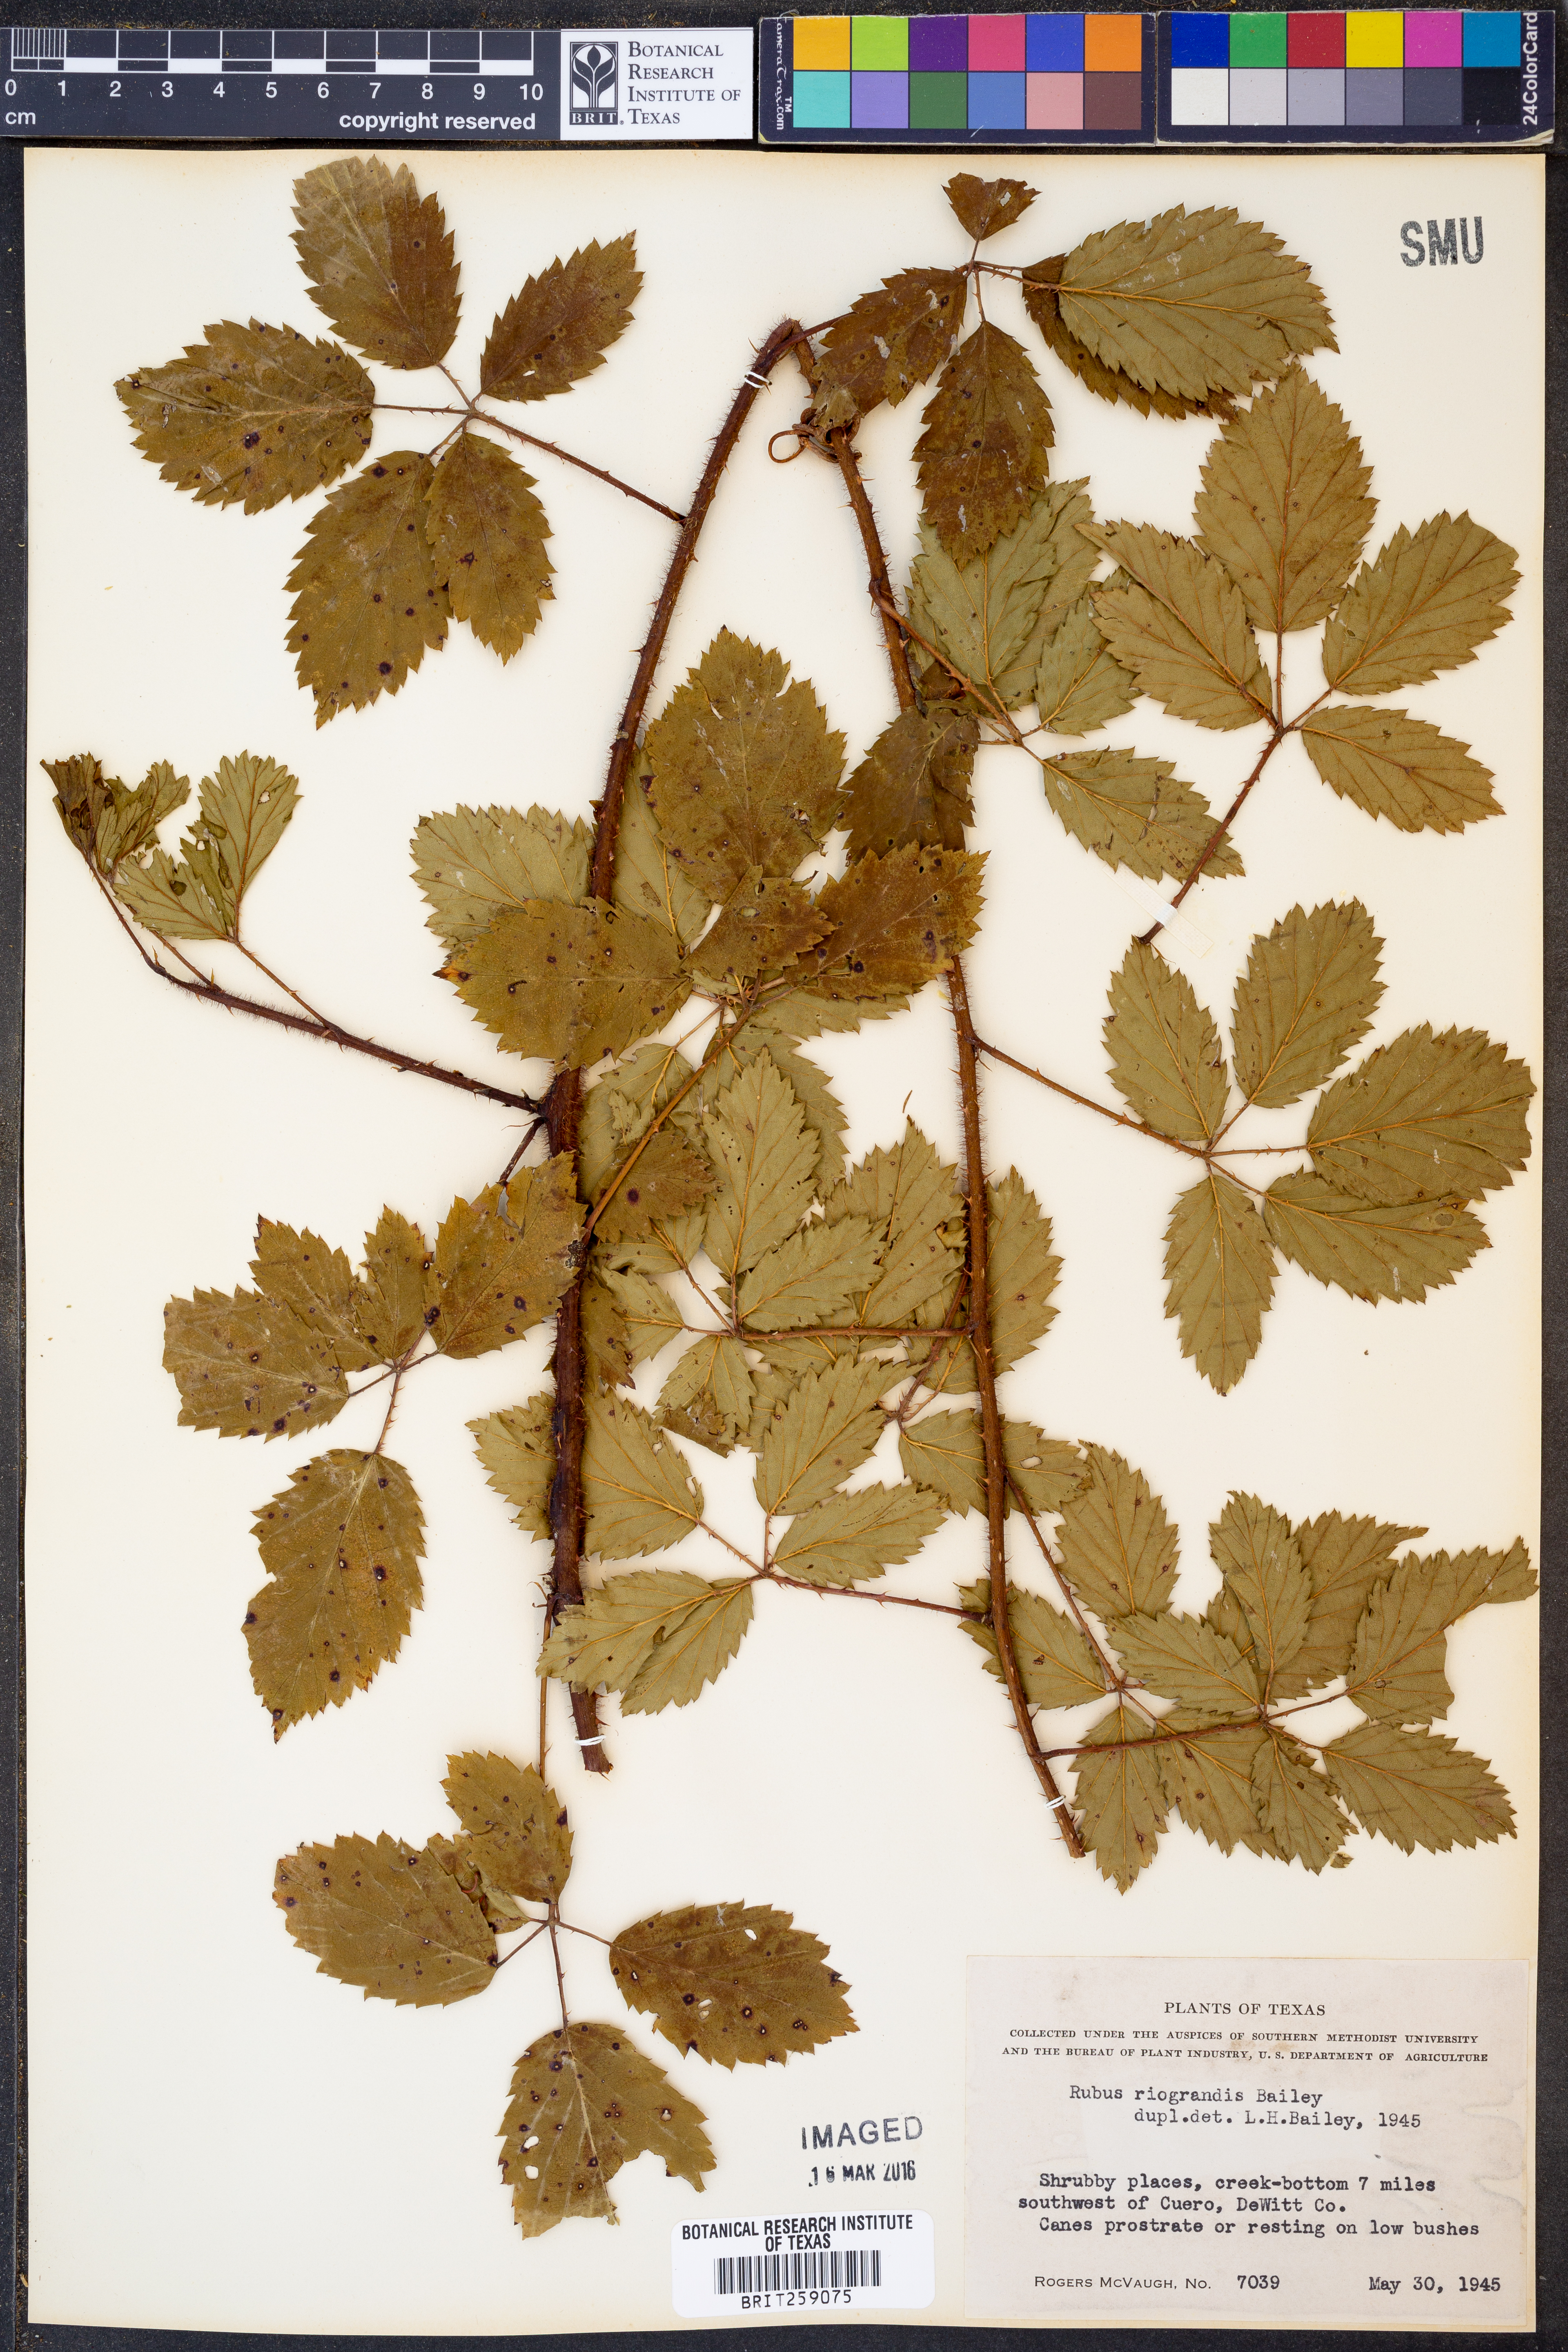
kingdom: Plantae
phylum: Tracheophyta
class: Magnoliopsida
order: Rosales
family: Rosaceae
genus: Rubus
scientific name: Rubus riograndis
